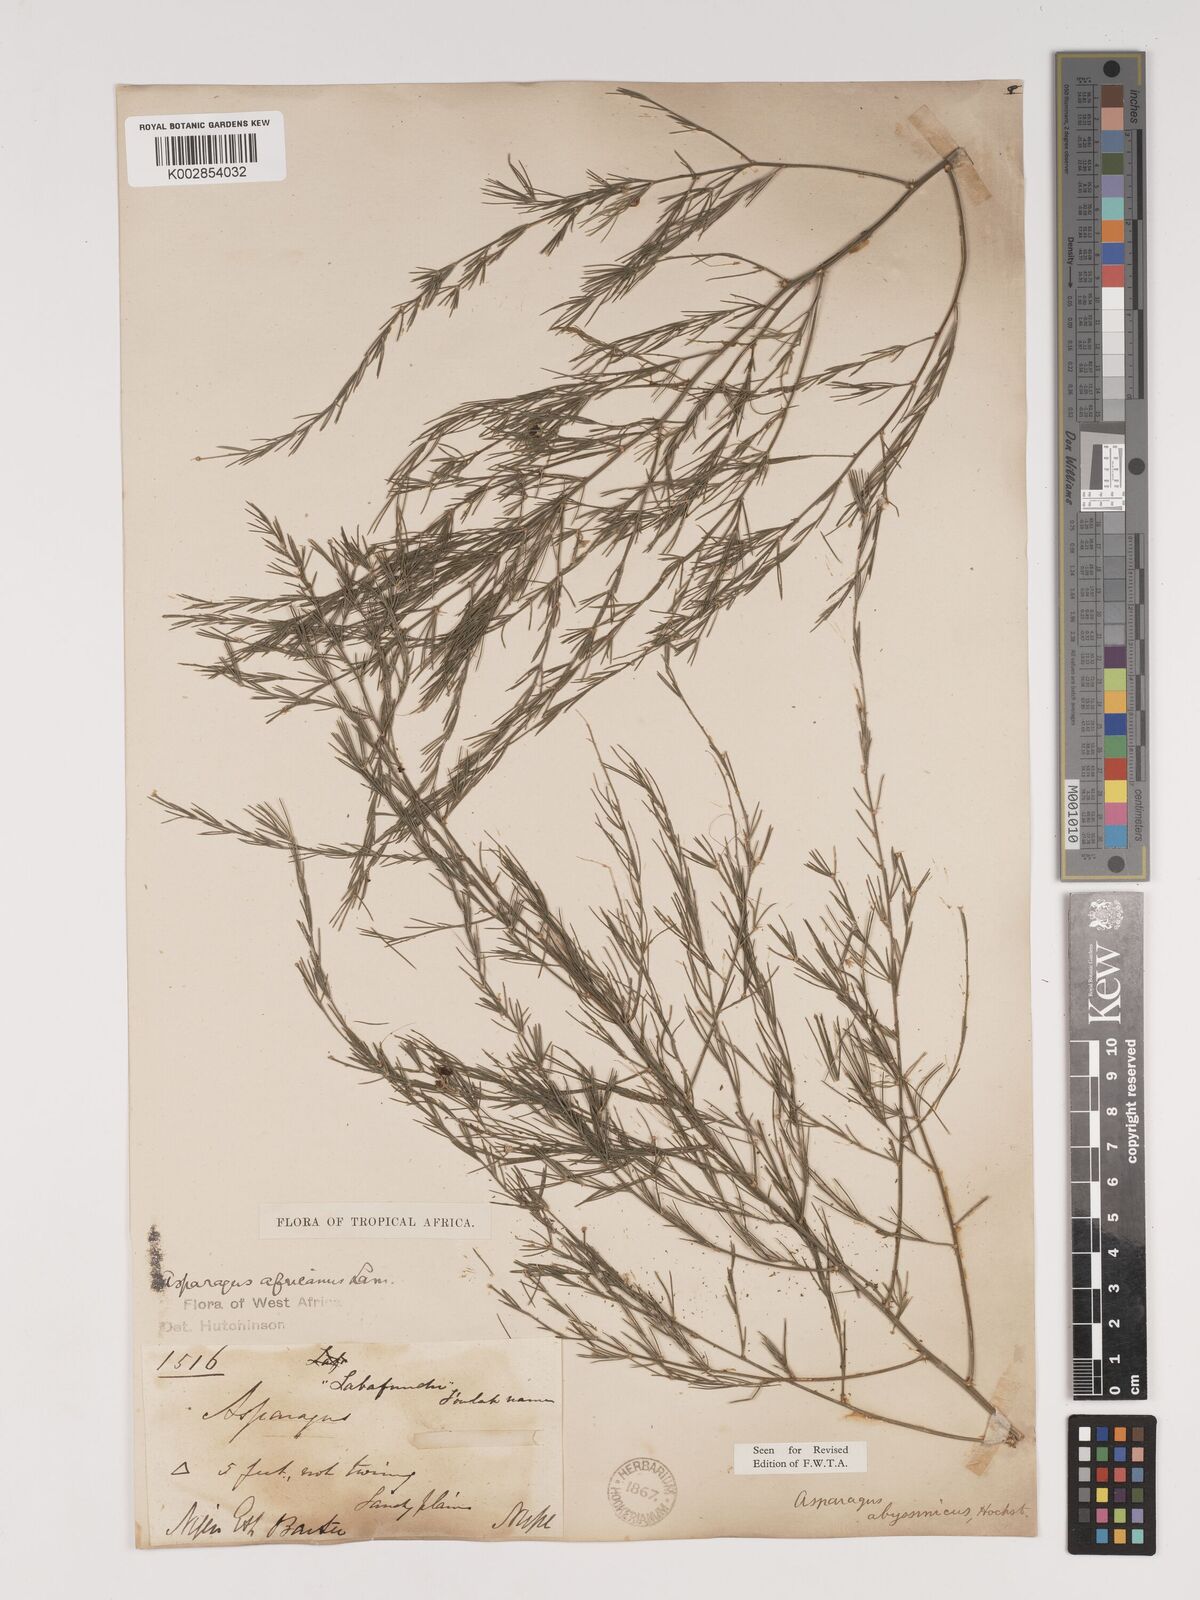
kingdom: Plantae
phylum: Tracheophyta
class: Liliopsida
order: Asparagales
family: Asparagaceae
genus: Asparagus
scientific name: Asparagus
